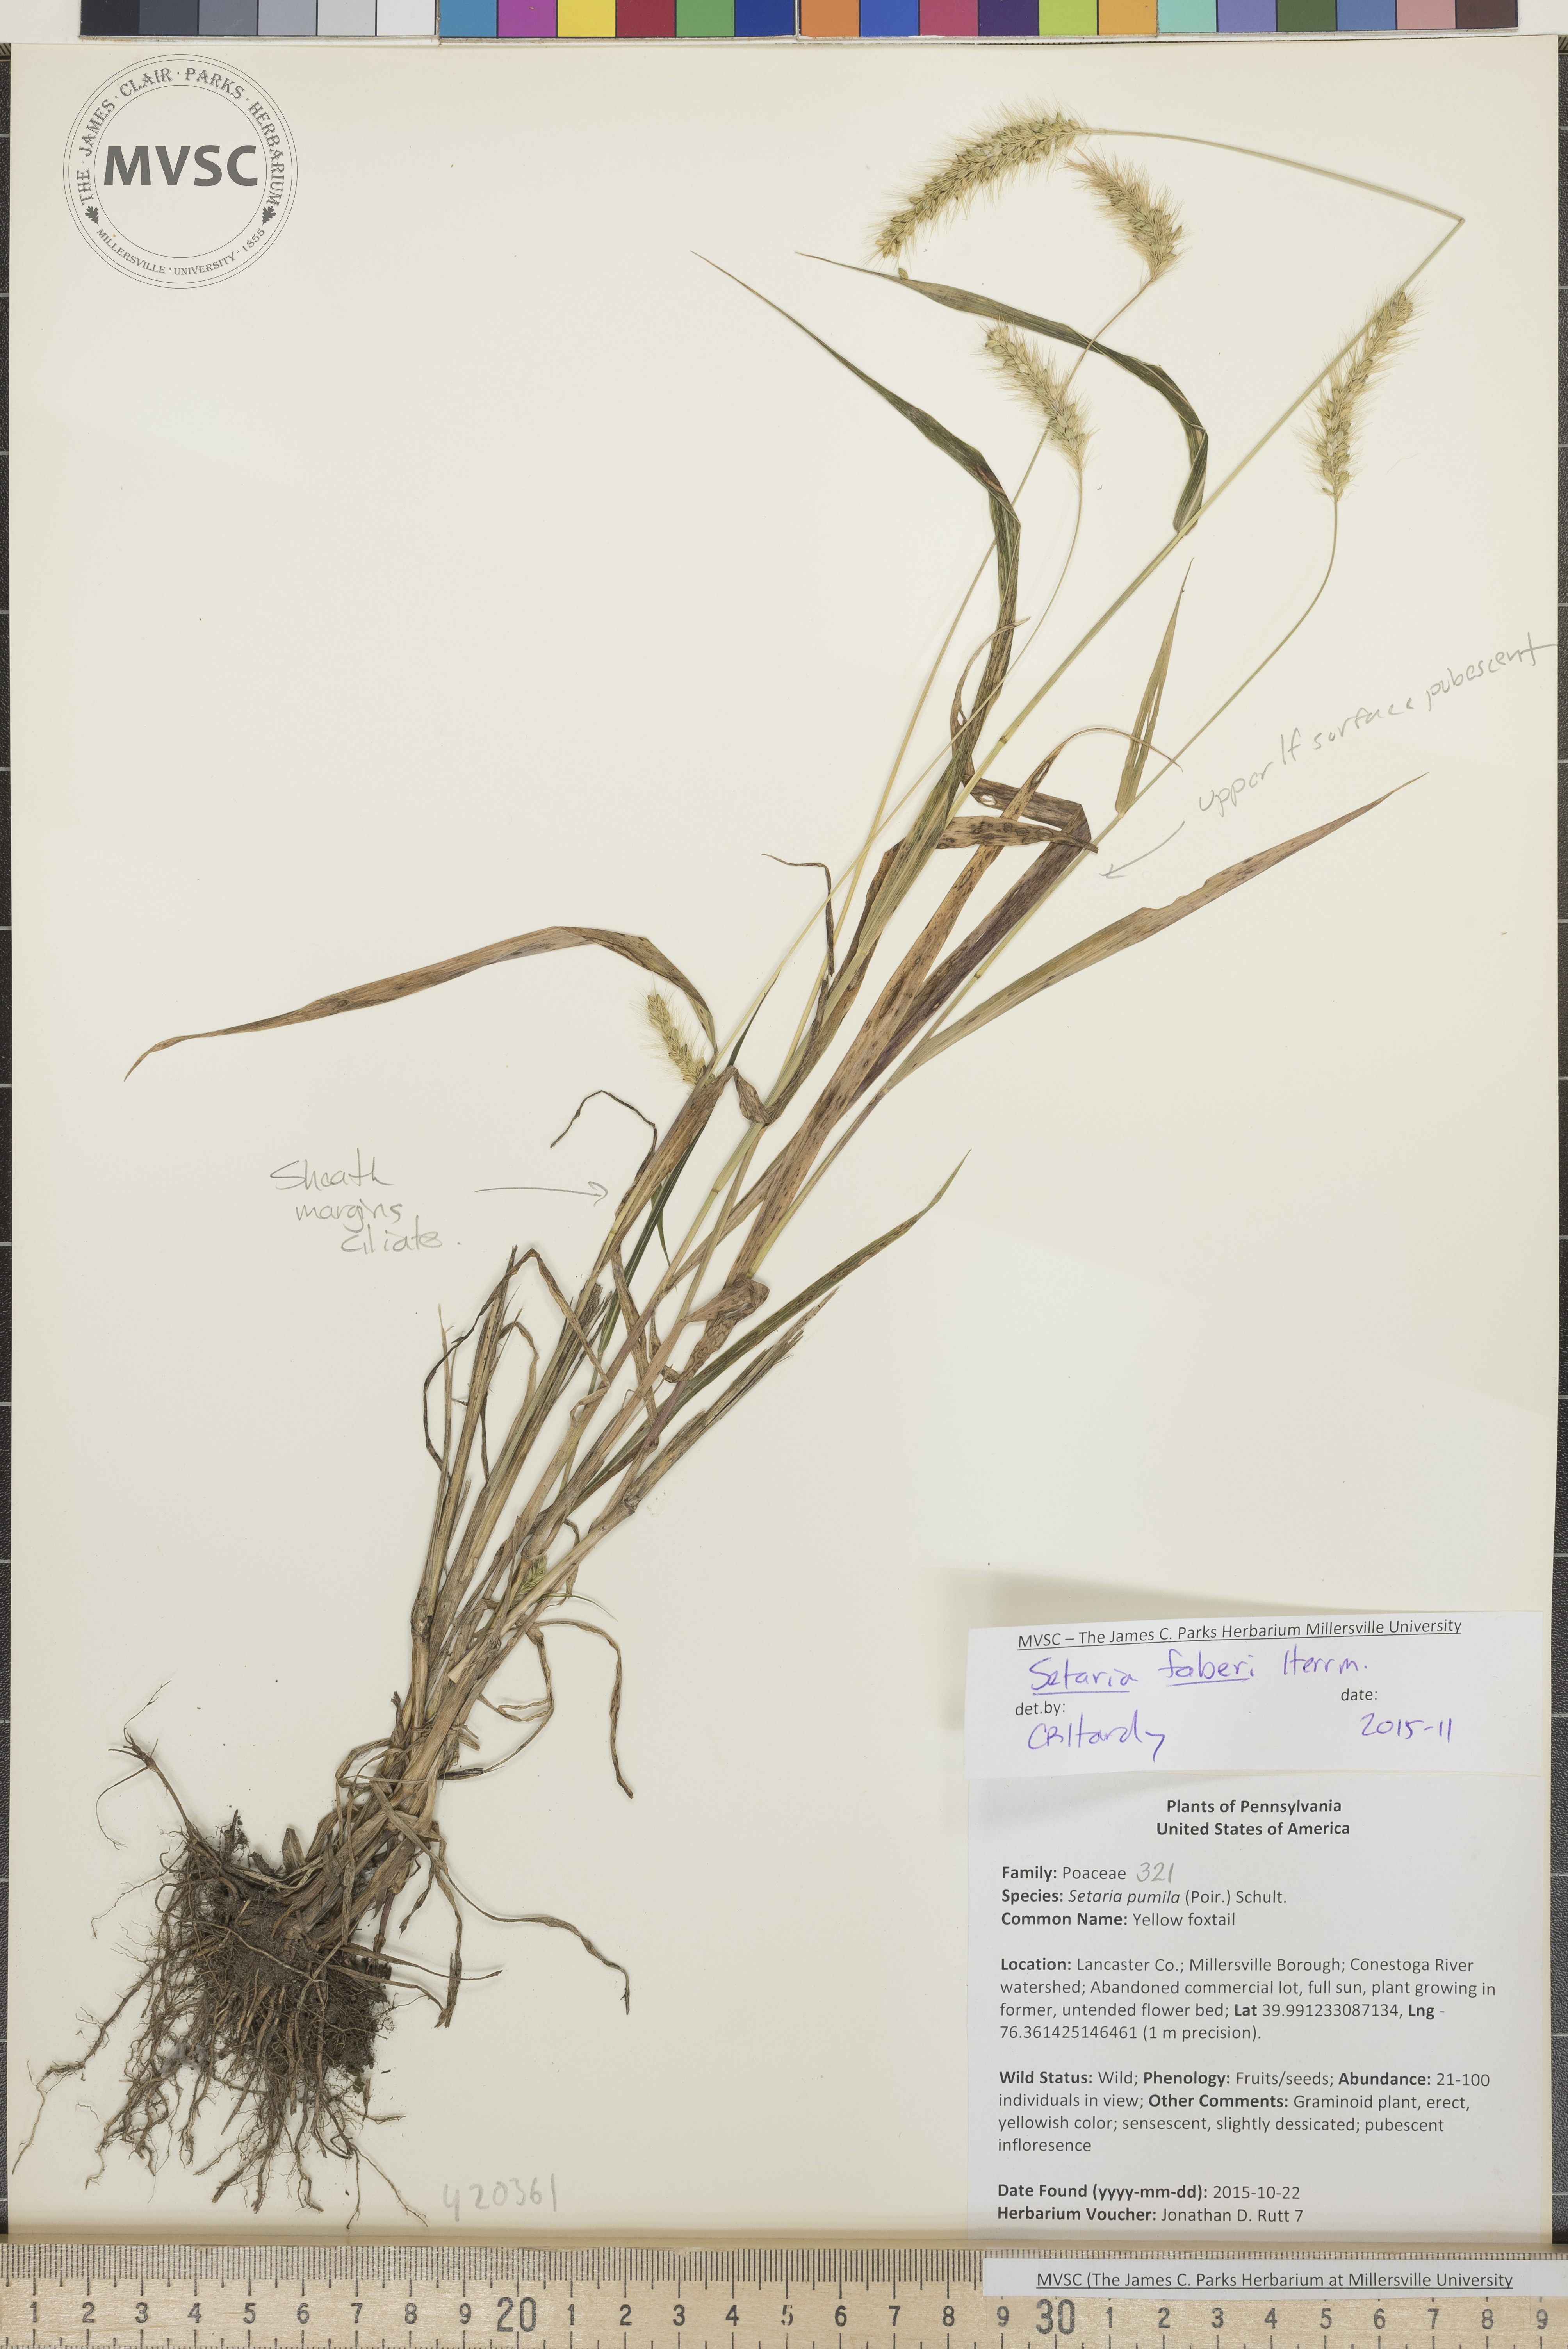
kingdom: Plantae
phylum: Tracheophyta
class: Liliopsida
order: Poales
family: Poaceae
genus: Setaria
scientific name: Setaria faberi
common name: Giant foxtail
